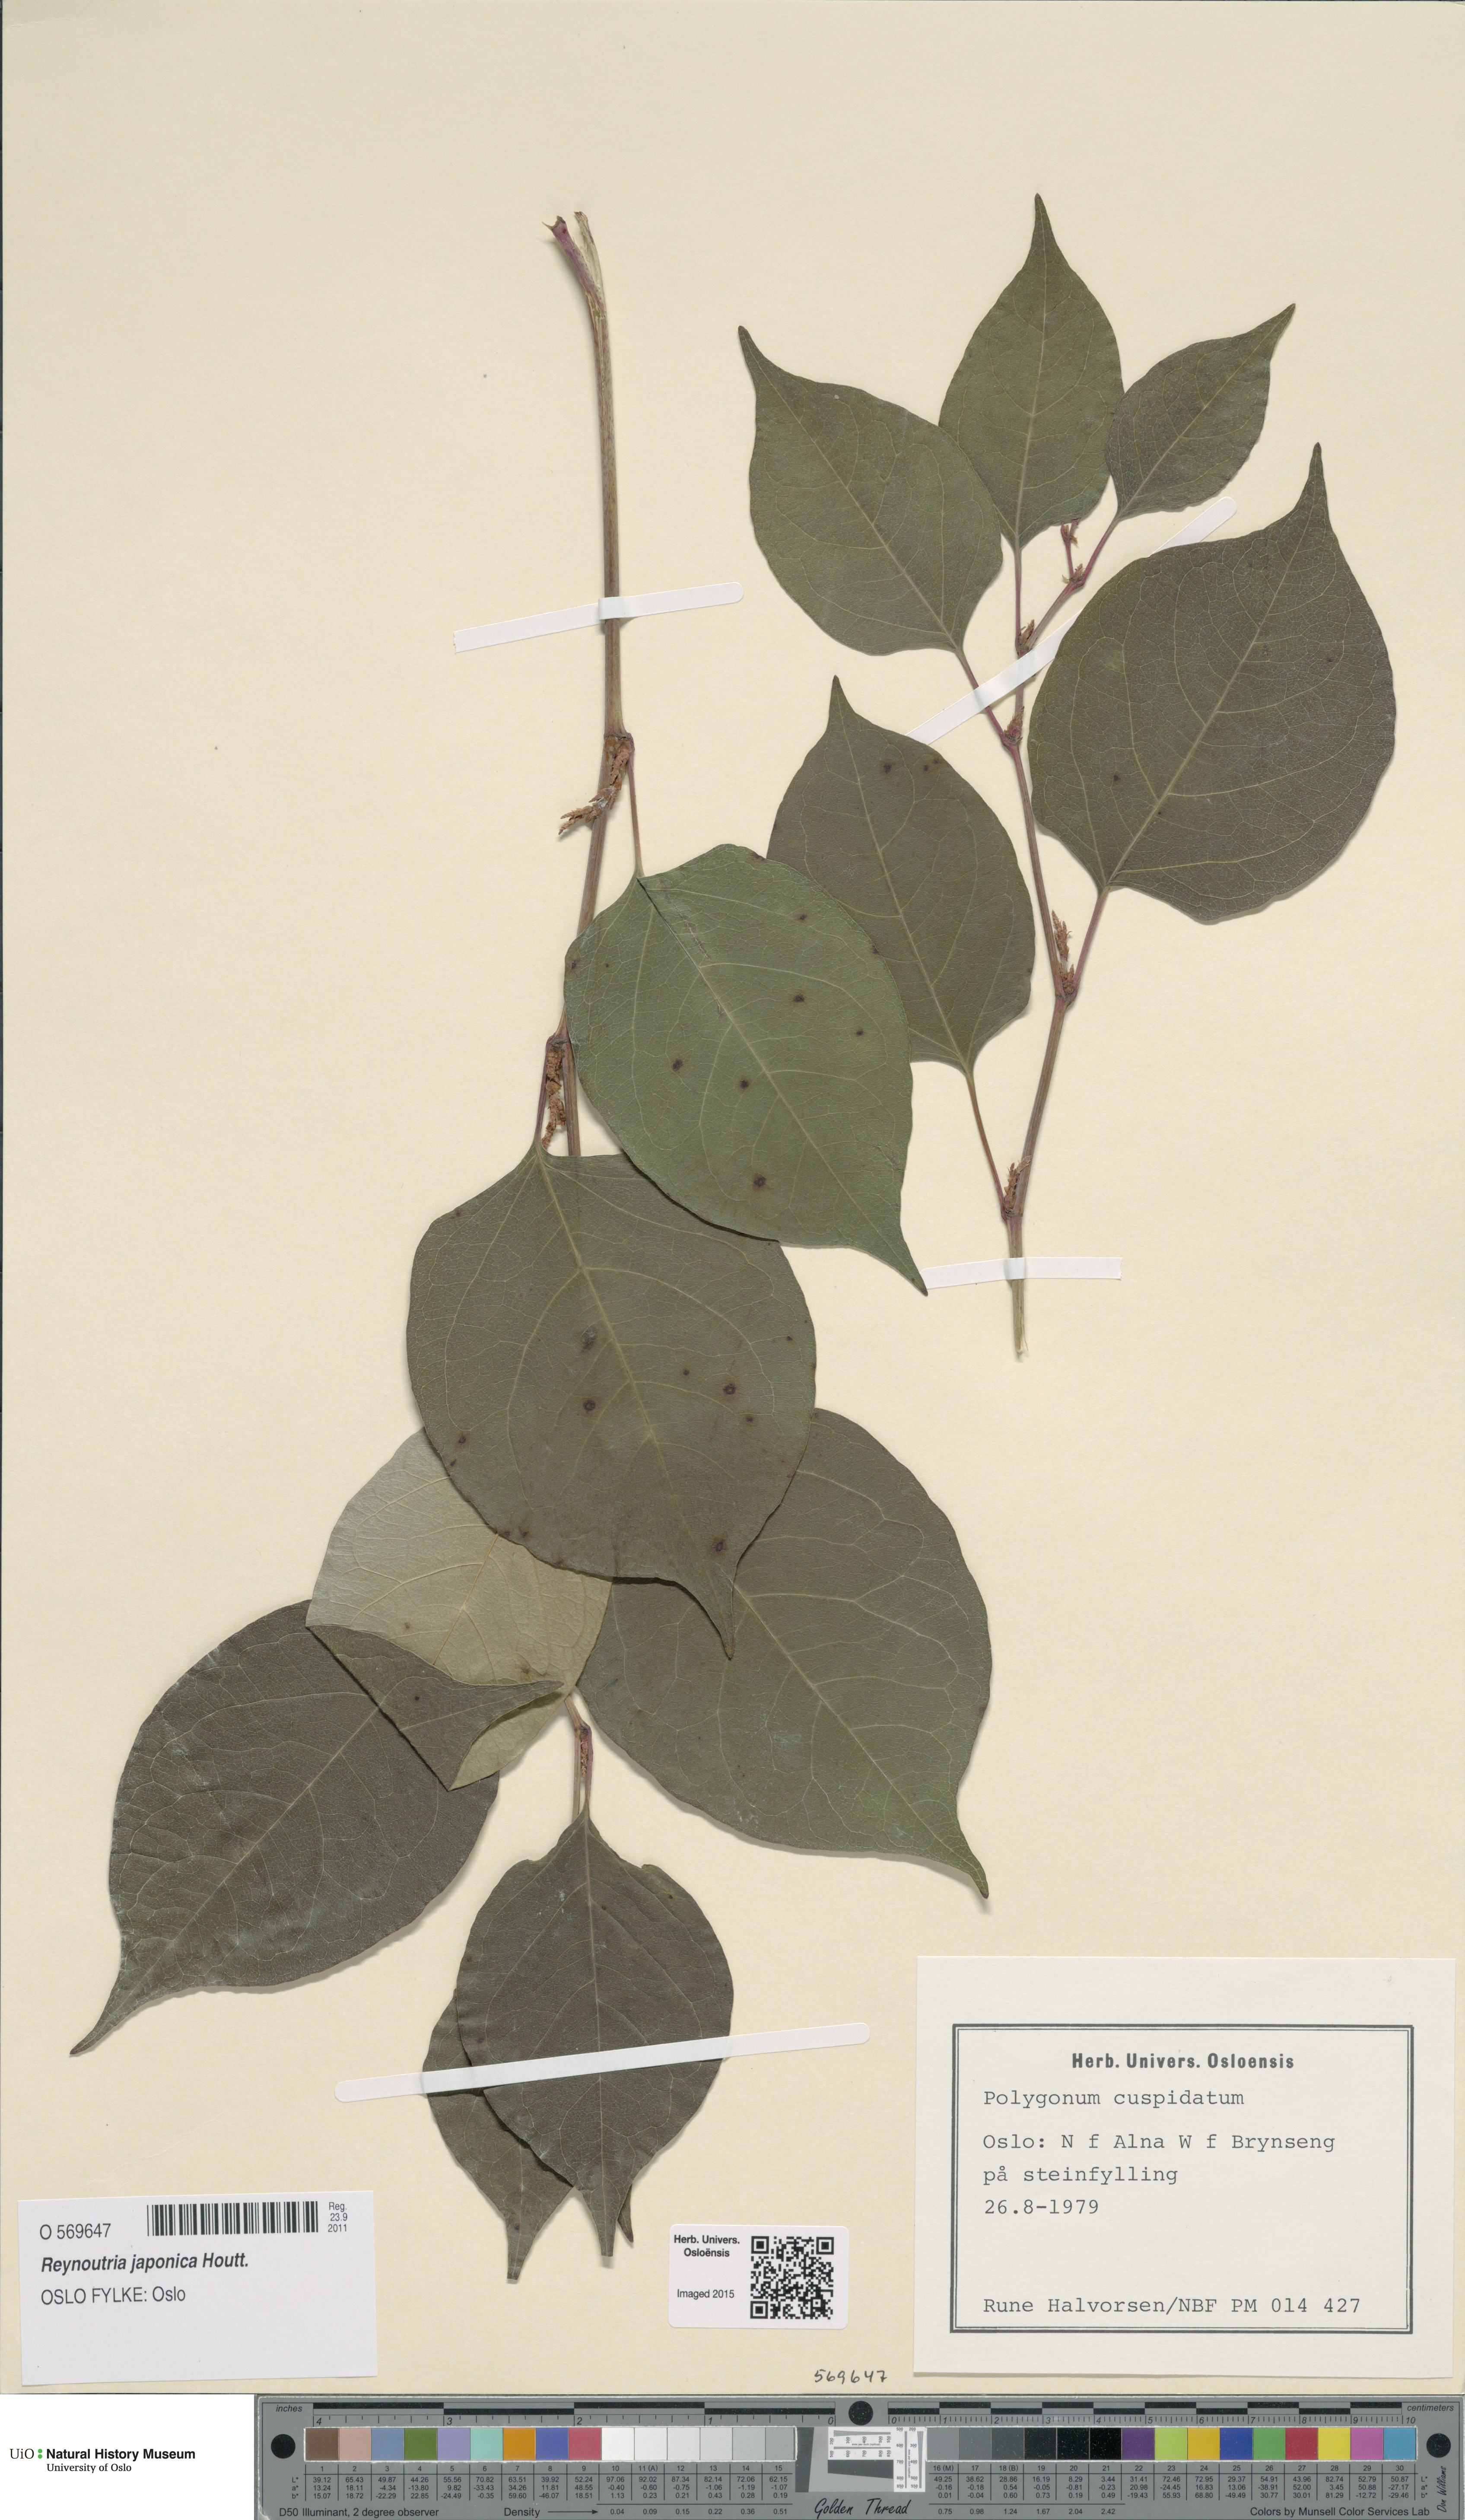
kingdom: Plantae
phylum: Tracheophyta
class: Magnoliopsida
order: Caryophyllales
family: Polygonaceae
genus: Reynoutria
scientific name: Reynoutria japonica
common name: Japanese knotweed
